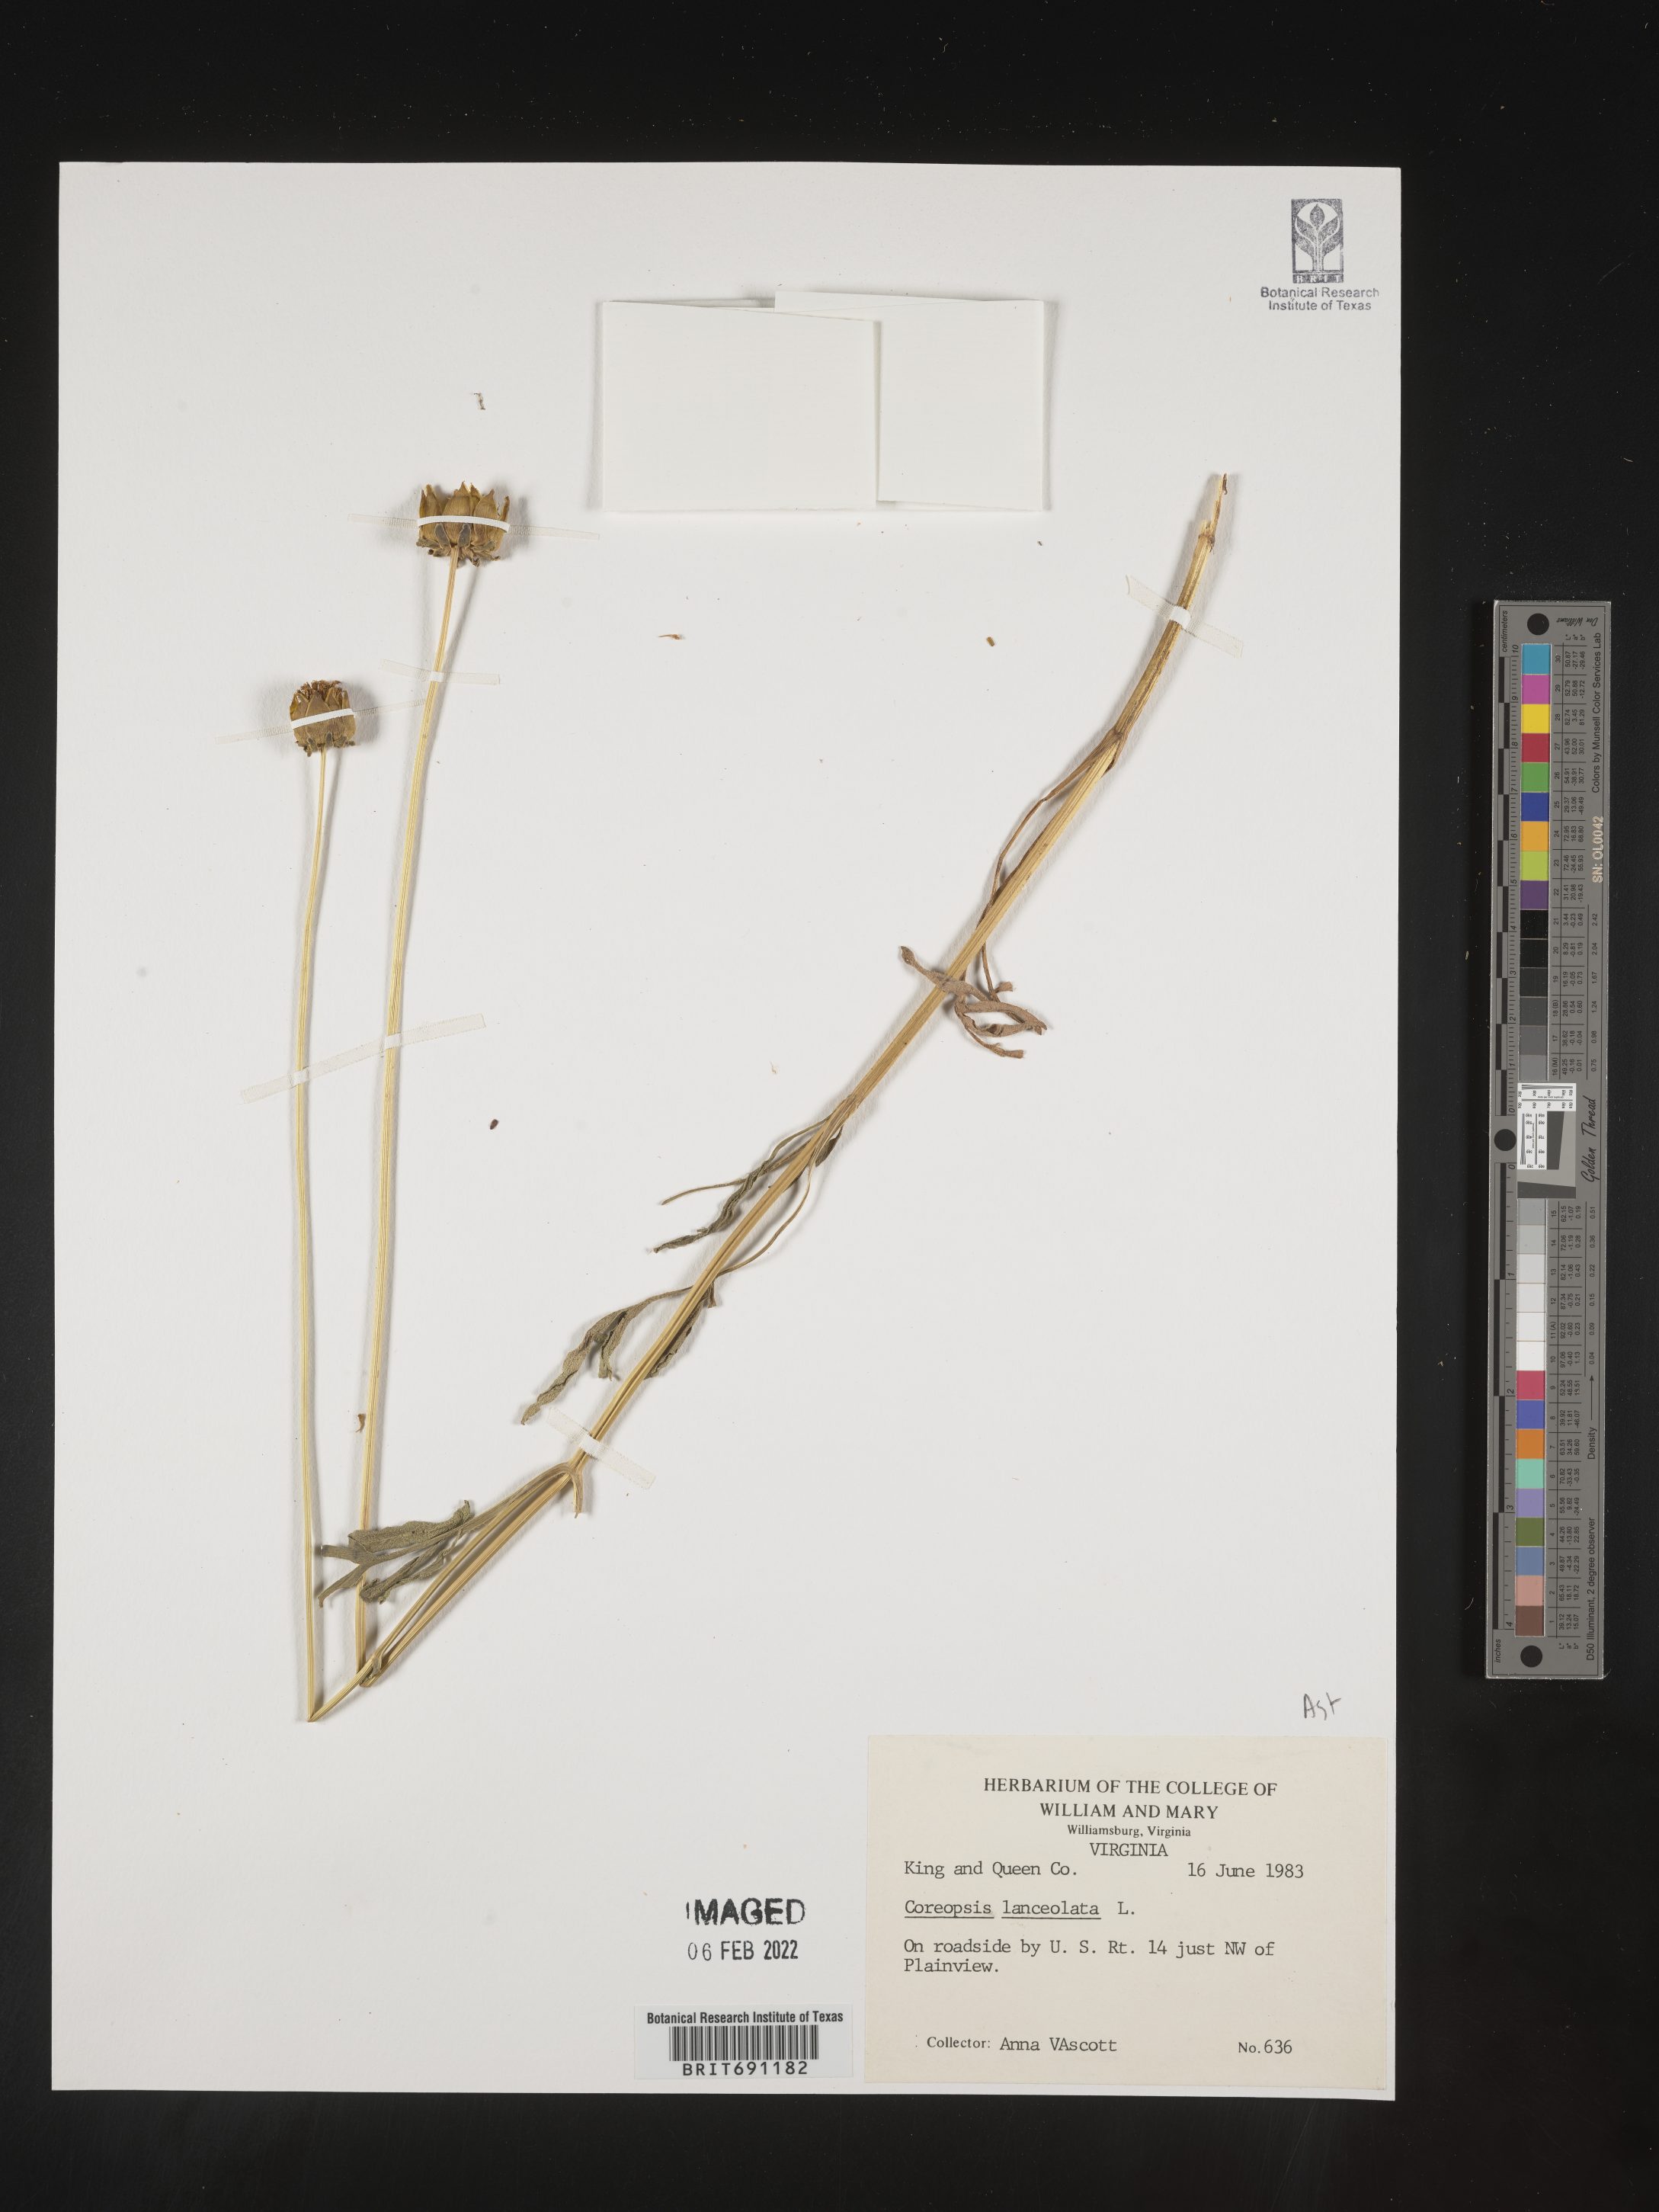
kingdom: Plantae
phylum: Tracheophyta
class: Magnoliopsida
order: Asterales
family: Asteraceae
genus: Coreopsis
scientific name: Coreopsis lanceolata
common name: Garden coreopsis
